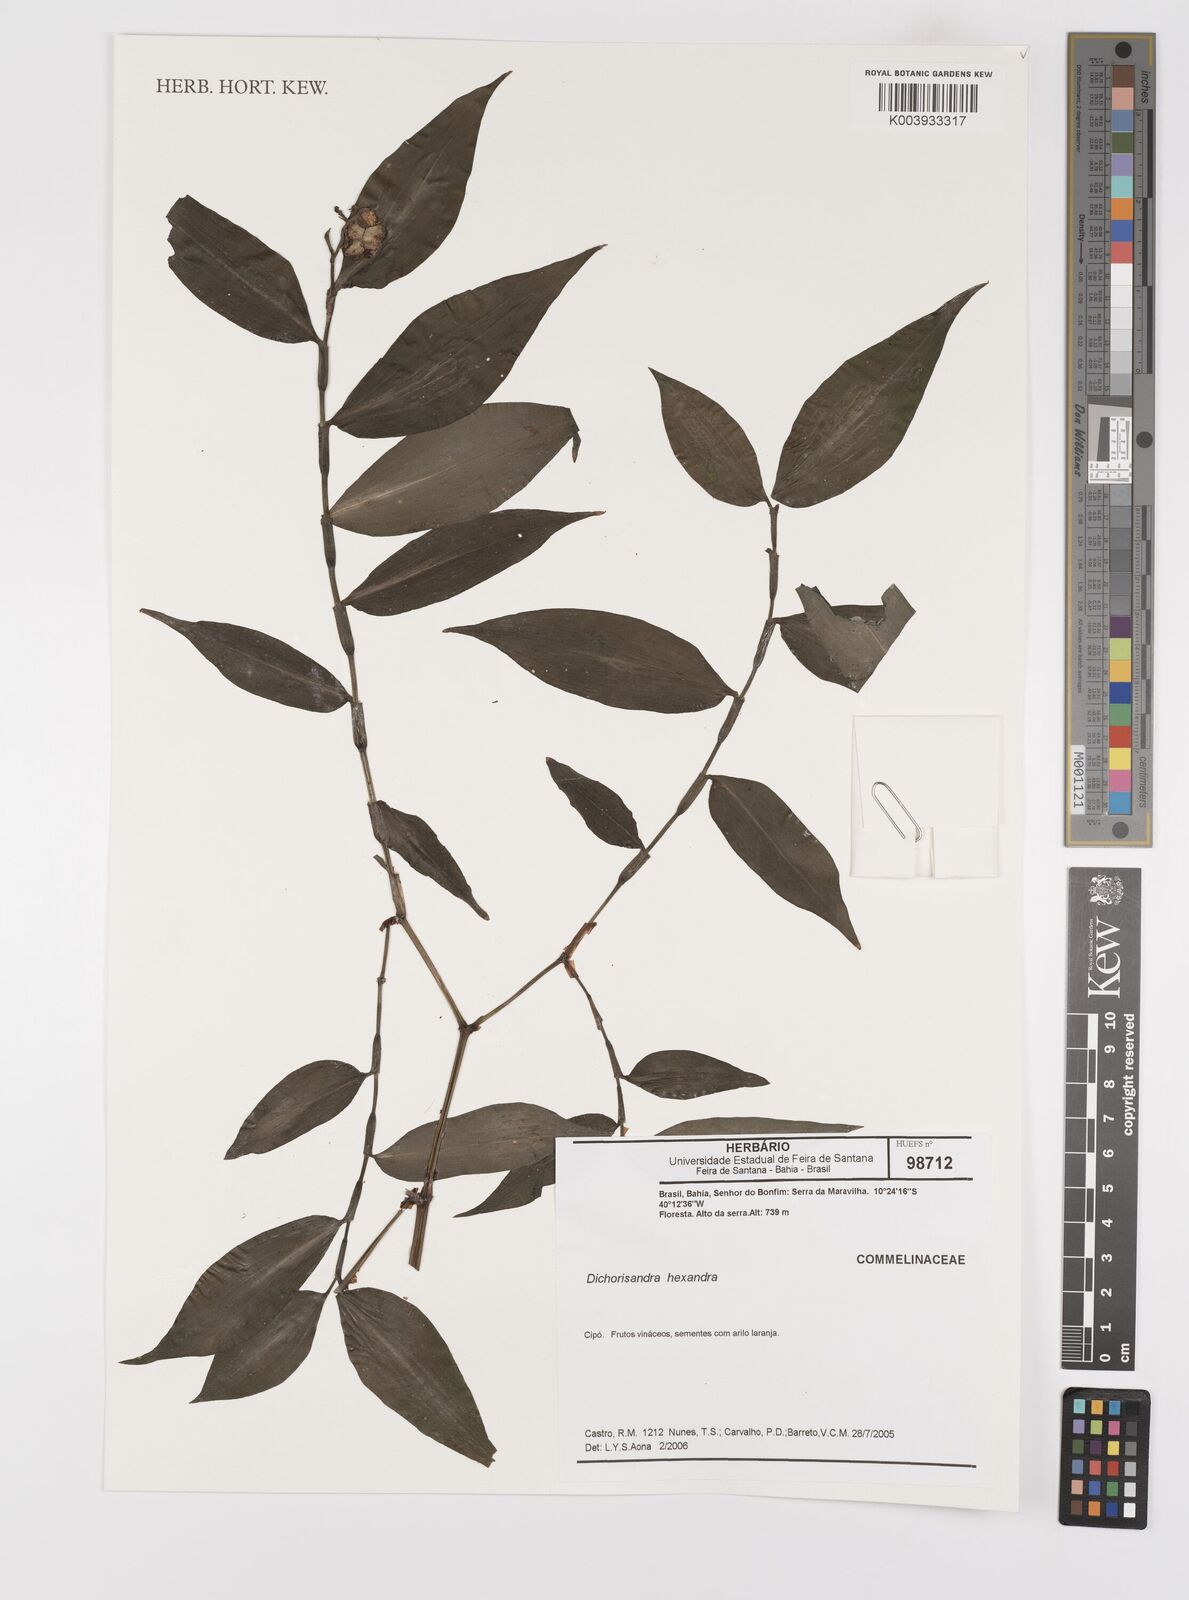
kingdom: Plantae
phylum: Tracheophyta
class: Liliopsida
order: Commelinales
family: Commelinaceae
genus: Dichorisandra
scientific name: Dichorisandra hexandra
